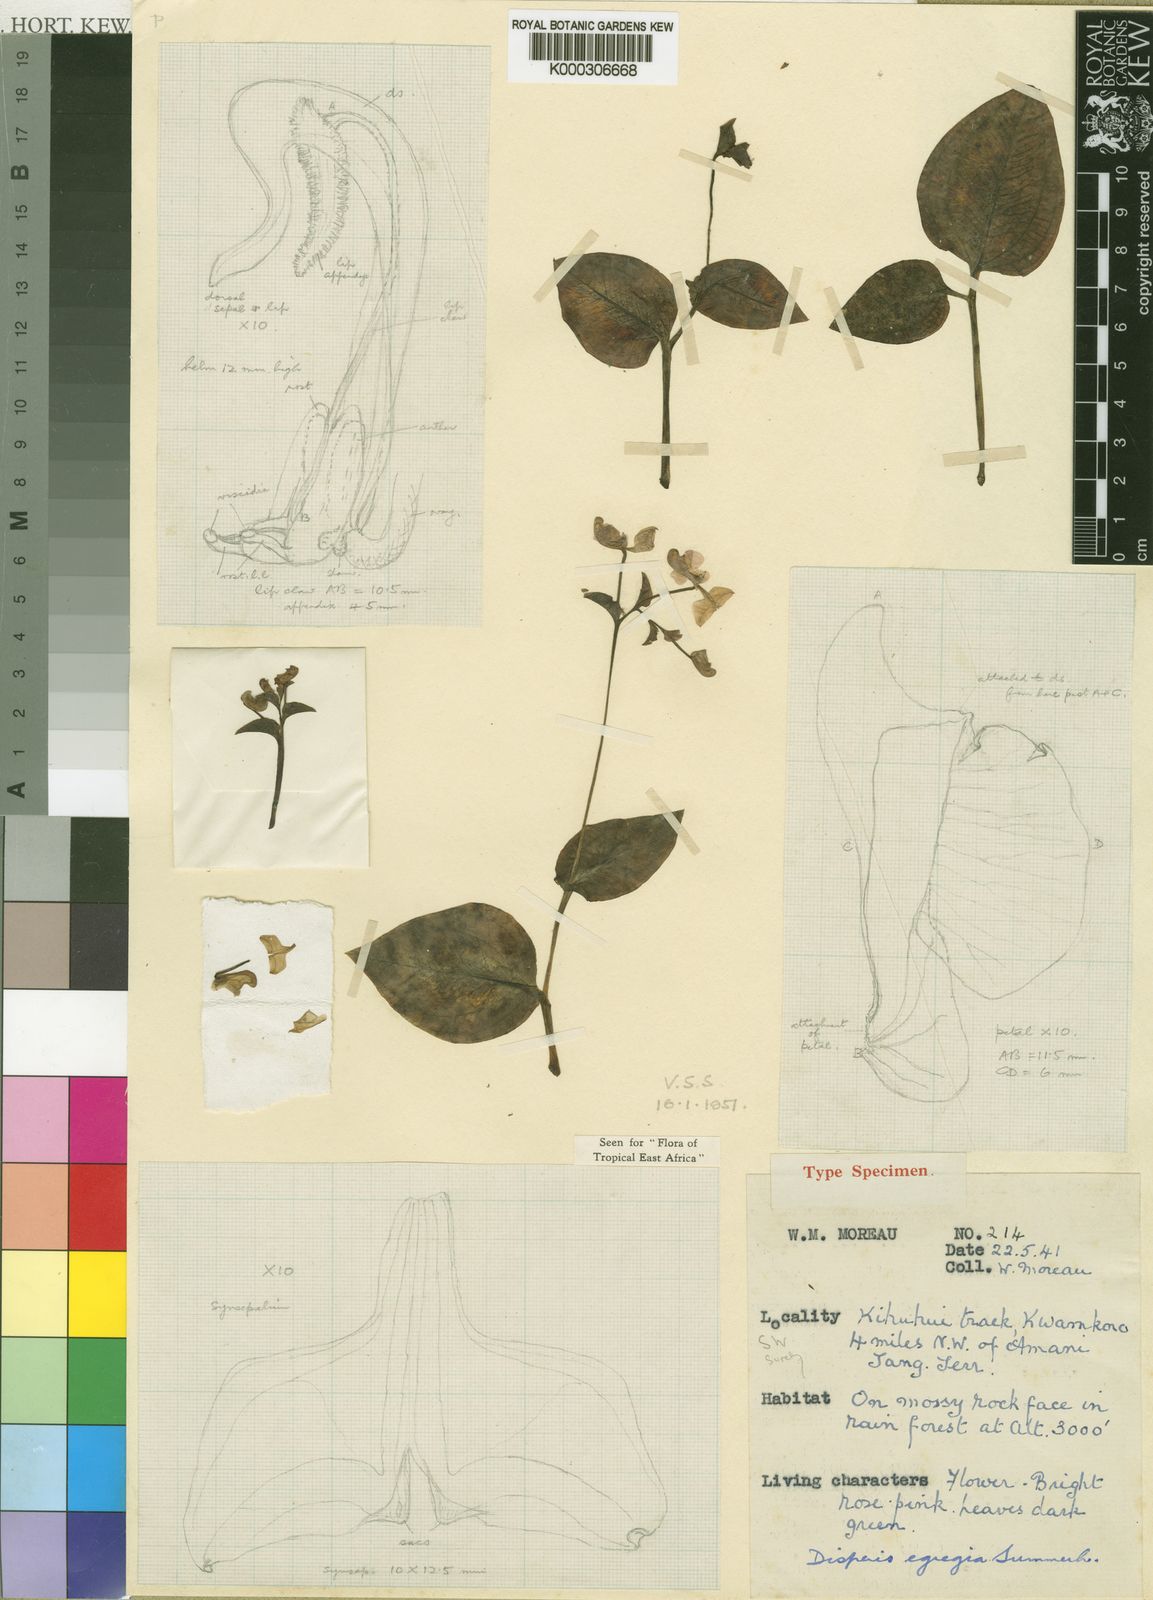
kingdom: Plantae
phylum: Tracheophyta
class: Liliopsida
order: Asparagales
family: Orchidaceae
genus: Disperis
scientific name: Disperis egregia
